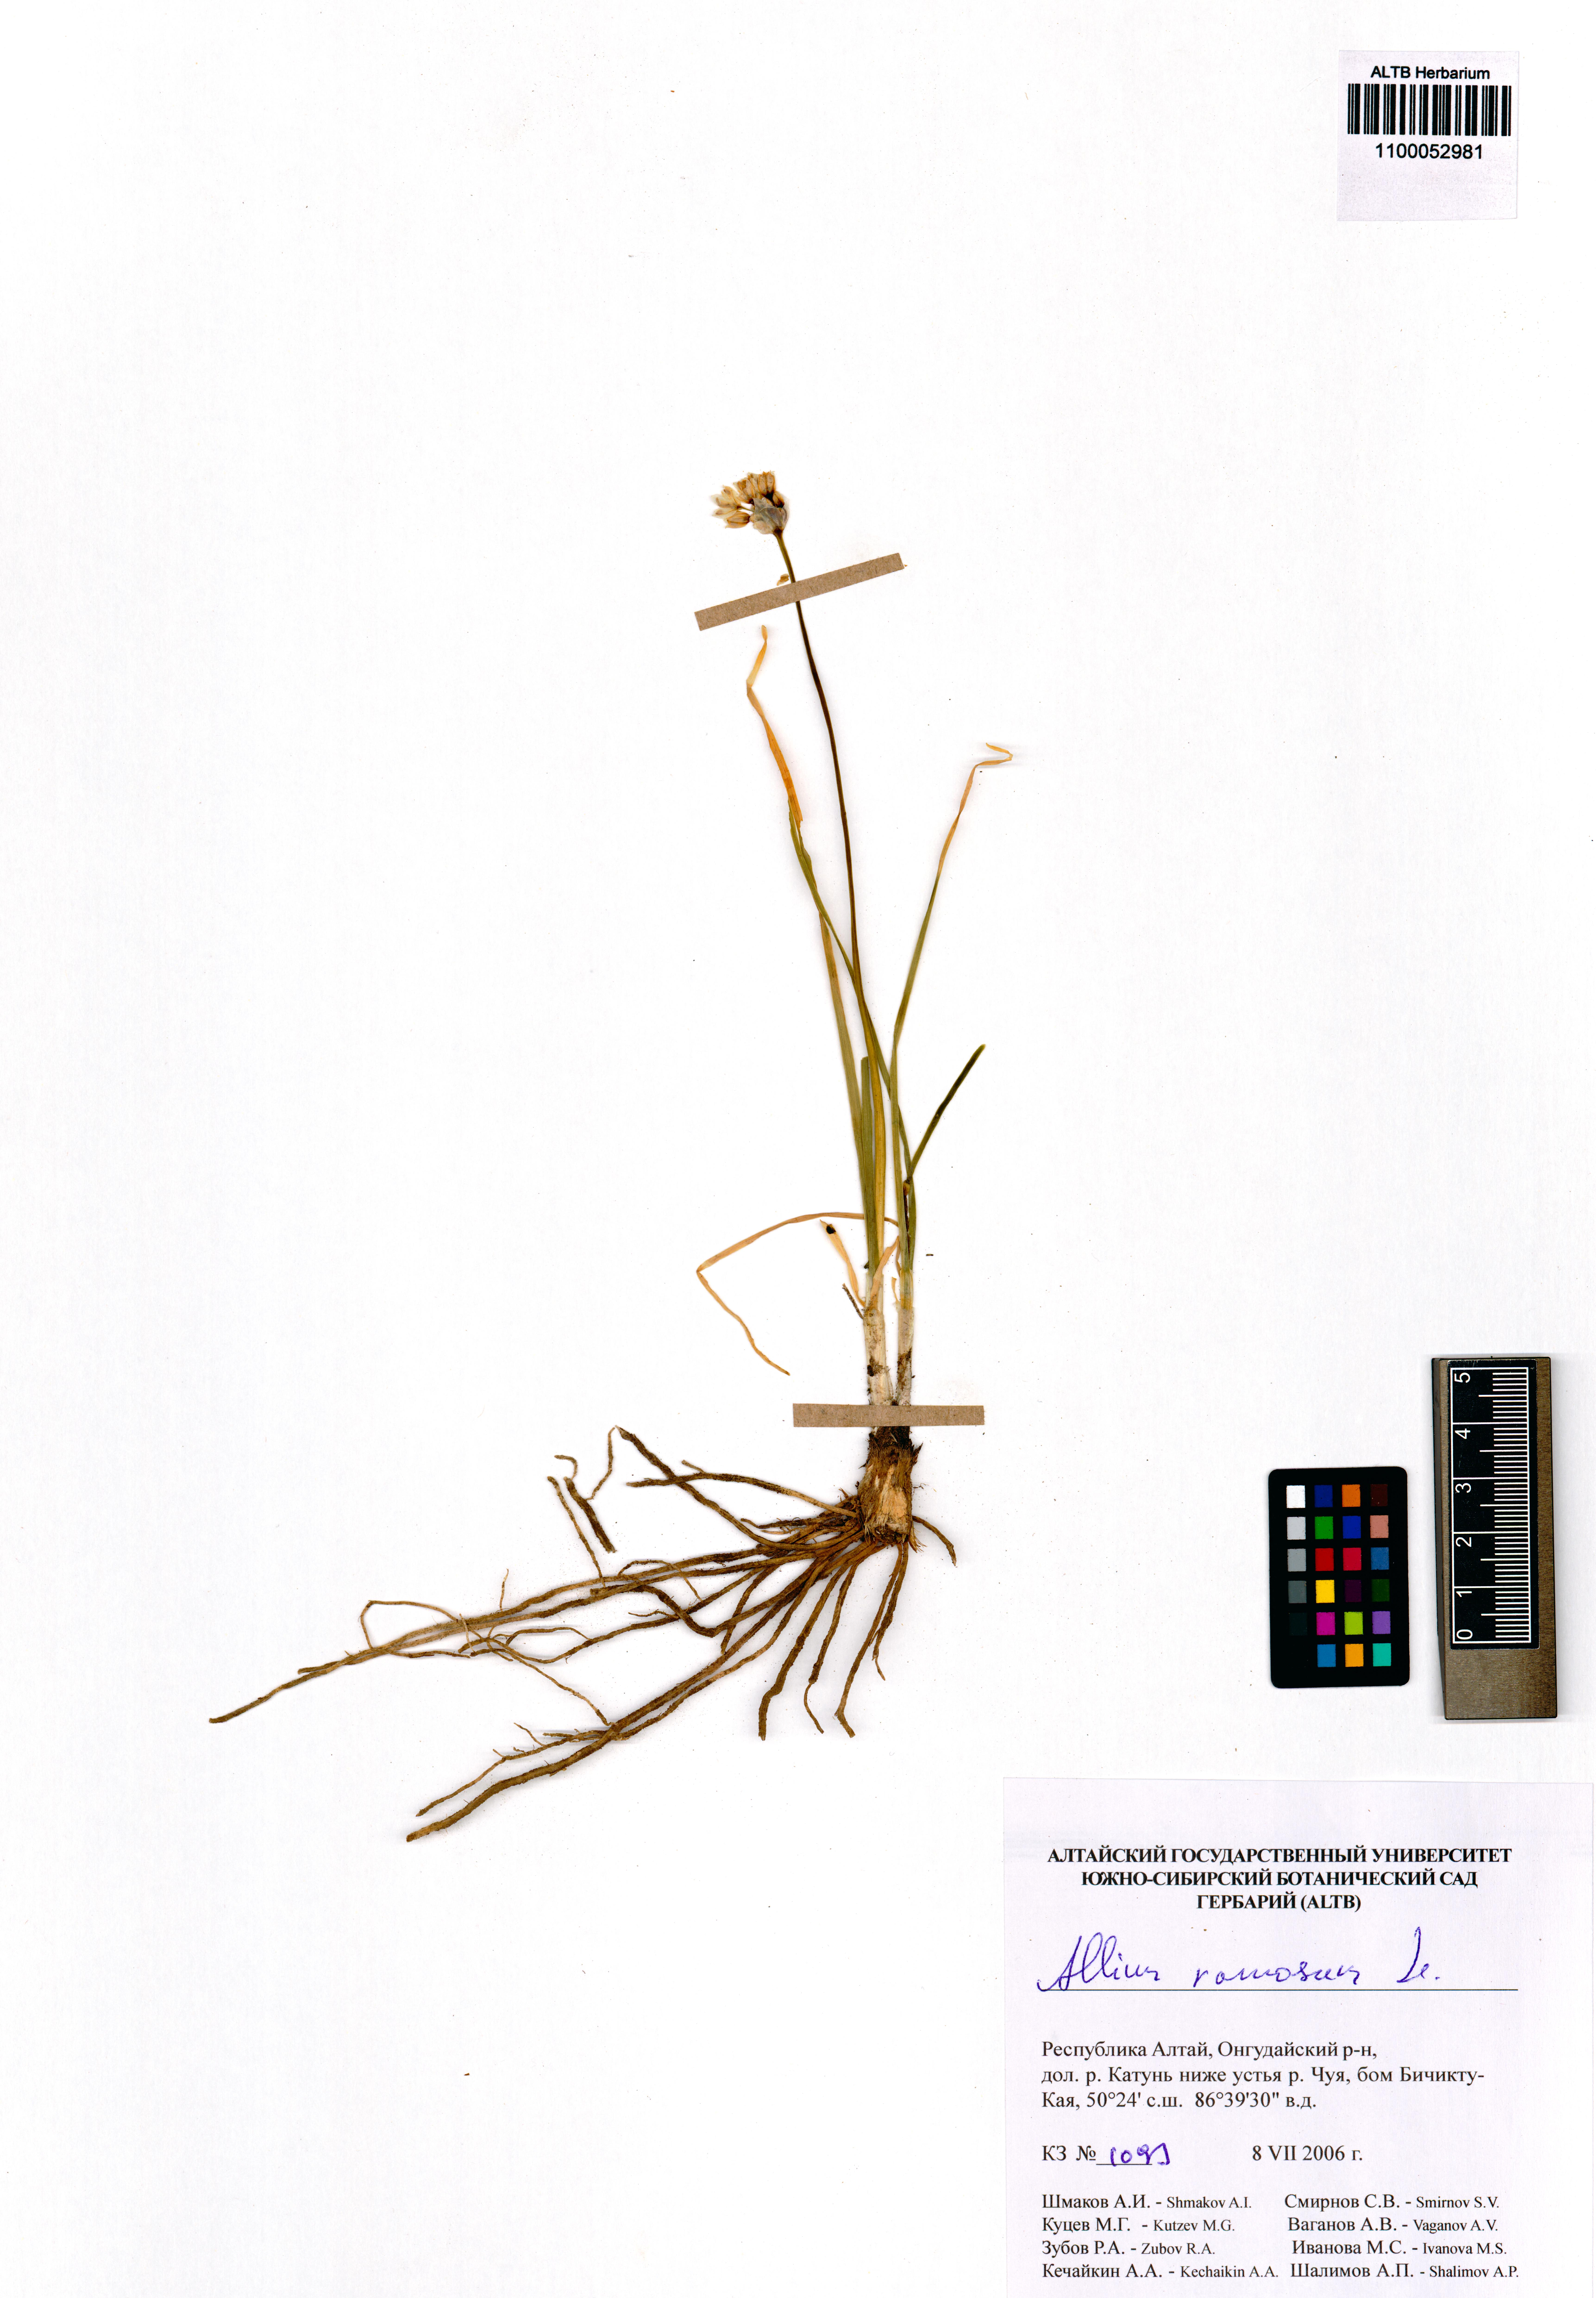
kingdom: Plantae
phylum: Tracheophyta
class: Liliopsida
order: Asparagales
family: Amaryllidaceae
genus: Allium
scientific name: Allium ramosum
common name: Fragrant garlic
